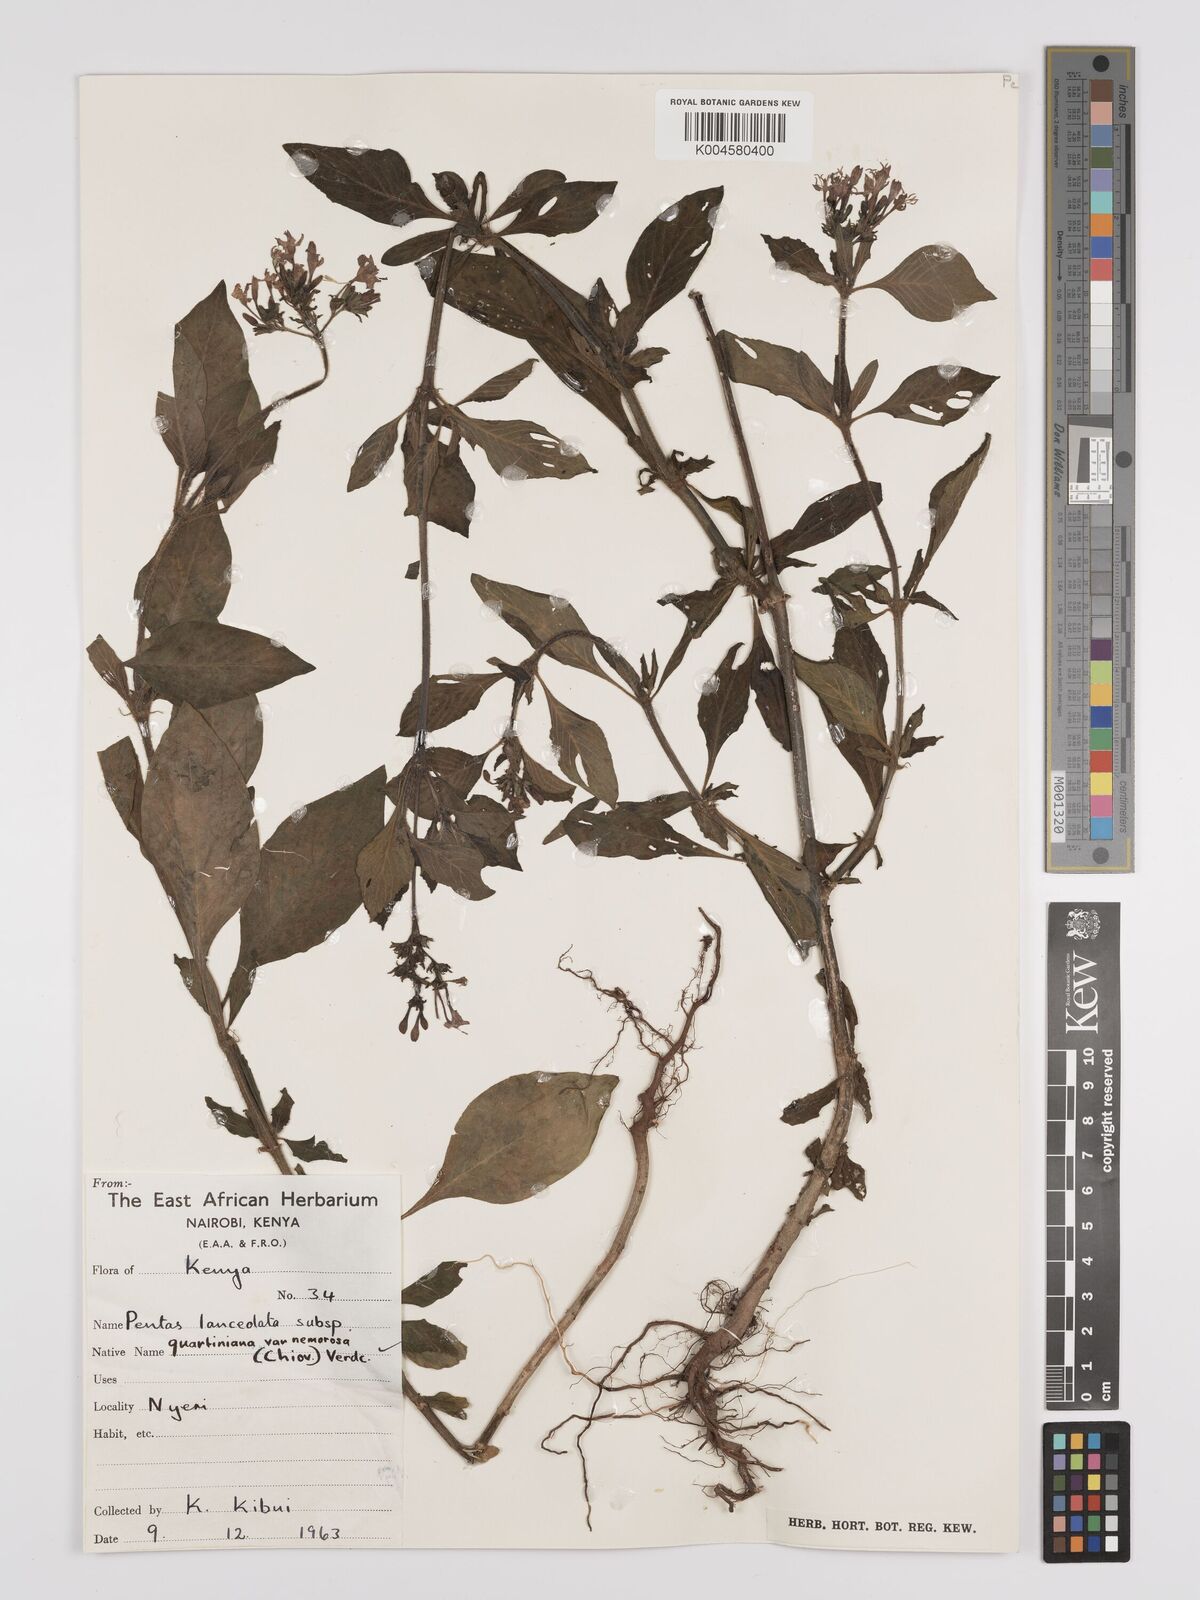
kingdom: Plantae
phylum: Tracheophyta
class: Magnoliopsida
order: Gentianales
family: Rubiaceae
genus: Pentas
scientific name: Pentas lanceolata
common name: Egyptian starcluster
